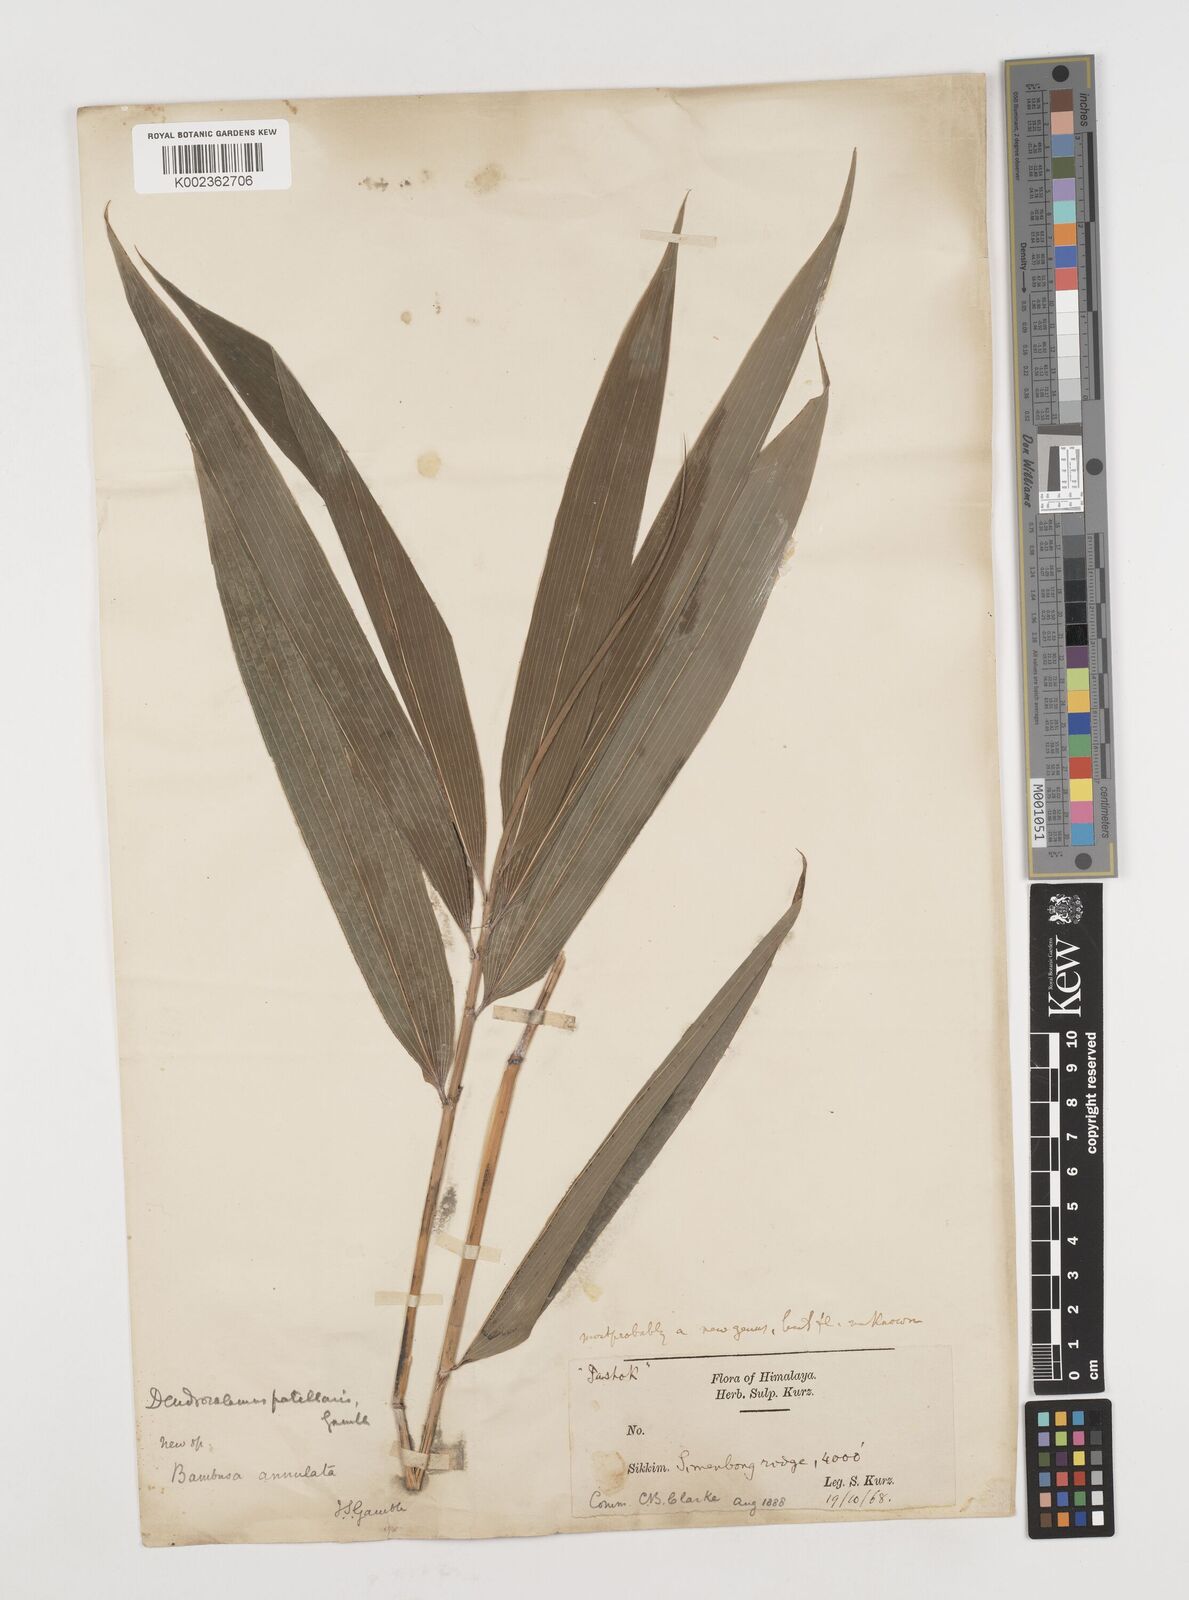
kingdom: Plantae
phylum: Tracheophyta
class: Liliopsida
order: Poales
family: Poaceae
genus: Ampelocalamus
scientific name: Ampelocalamus patellaris
